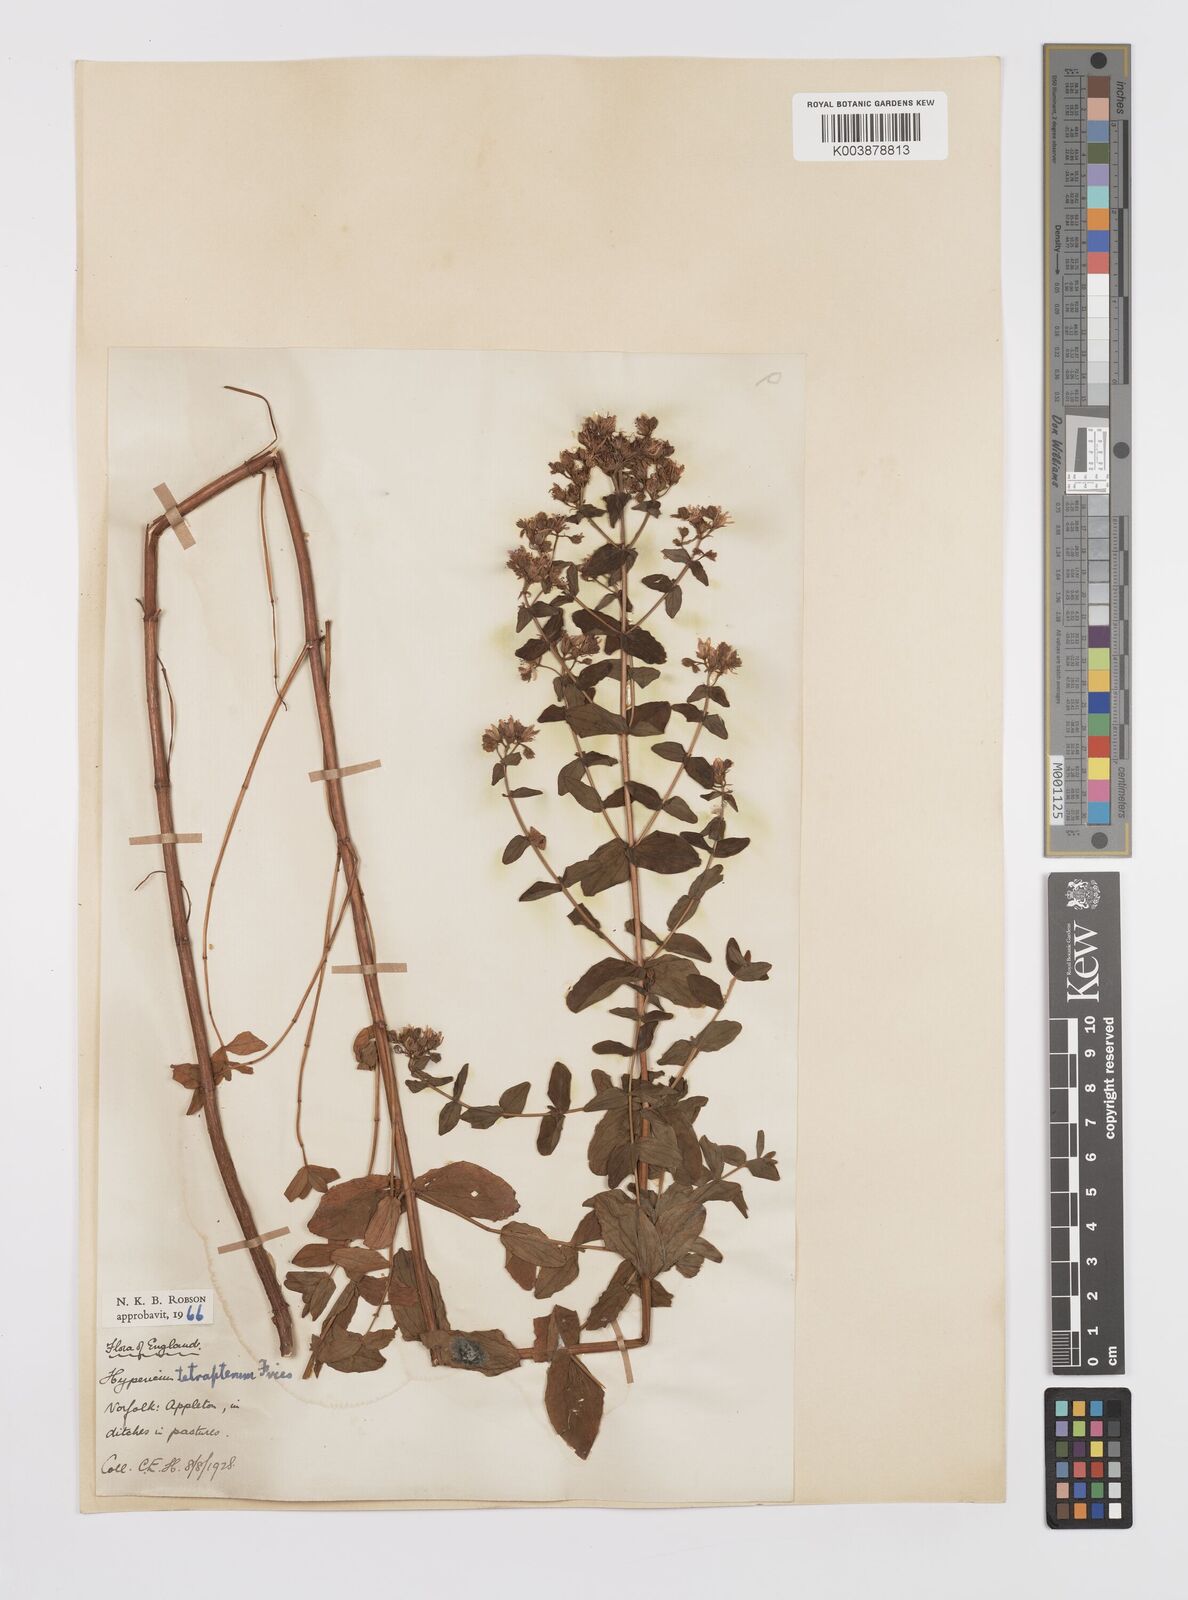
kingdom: Plantae
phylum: Tracheophyta
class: Magnoliopsida
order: Malpighiales
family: Hypericaceae
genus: Hypericum
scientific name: Hypericum tetrapterum
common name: Square-stalked st. john's-wort
